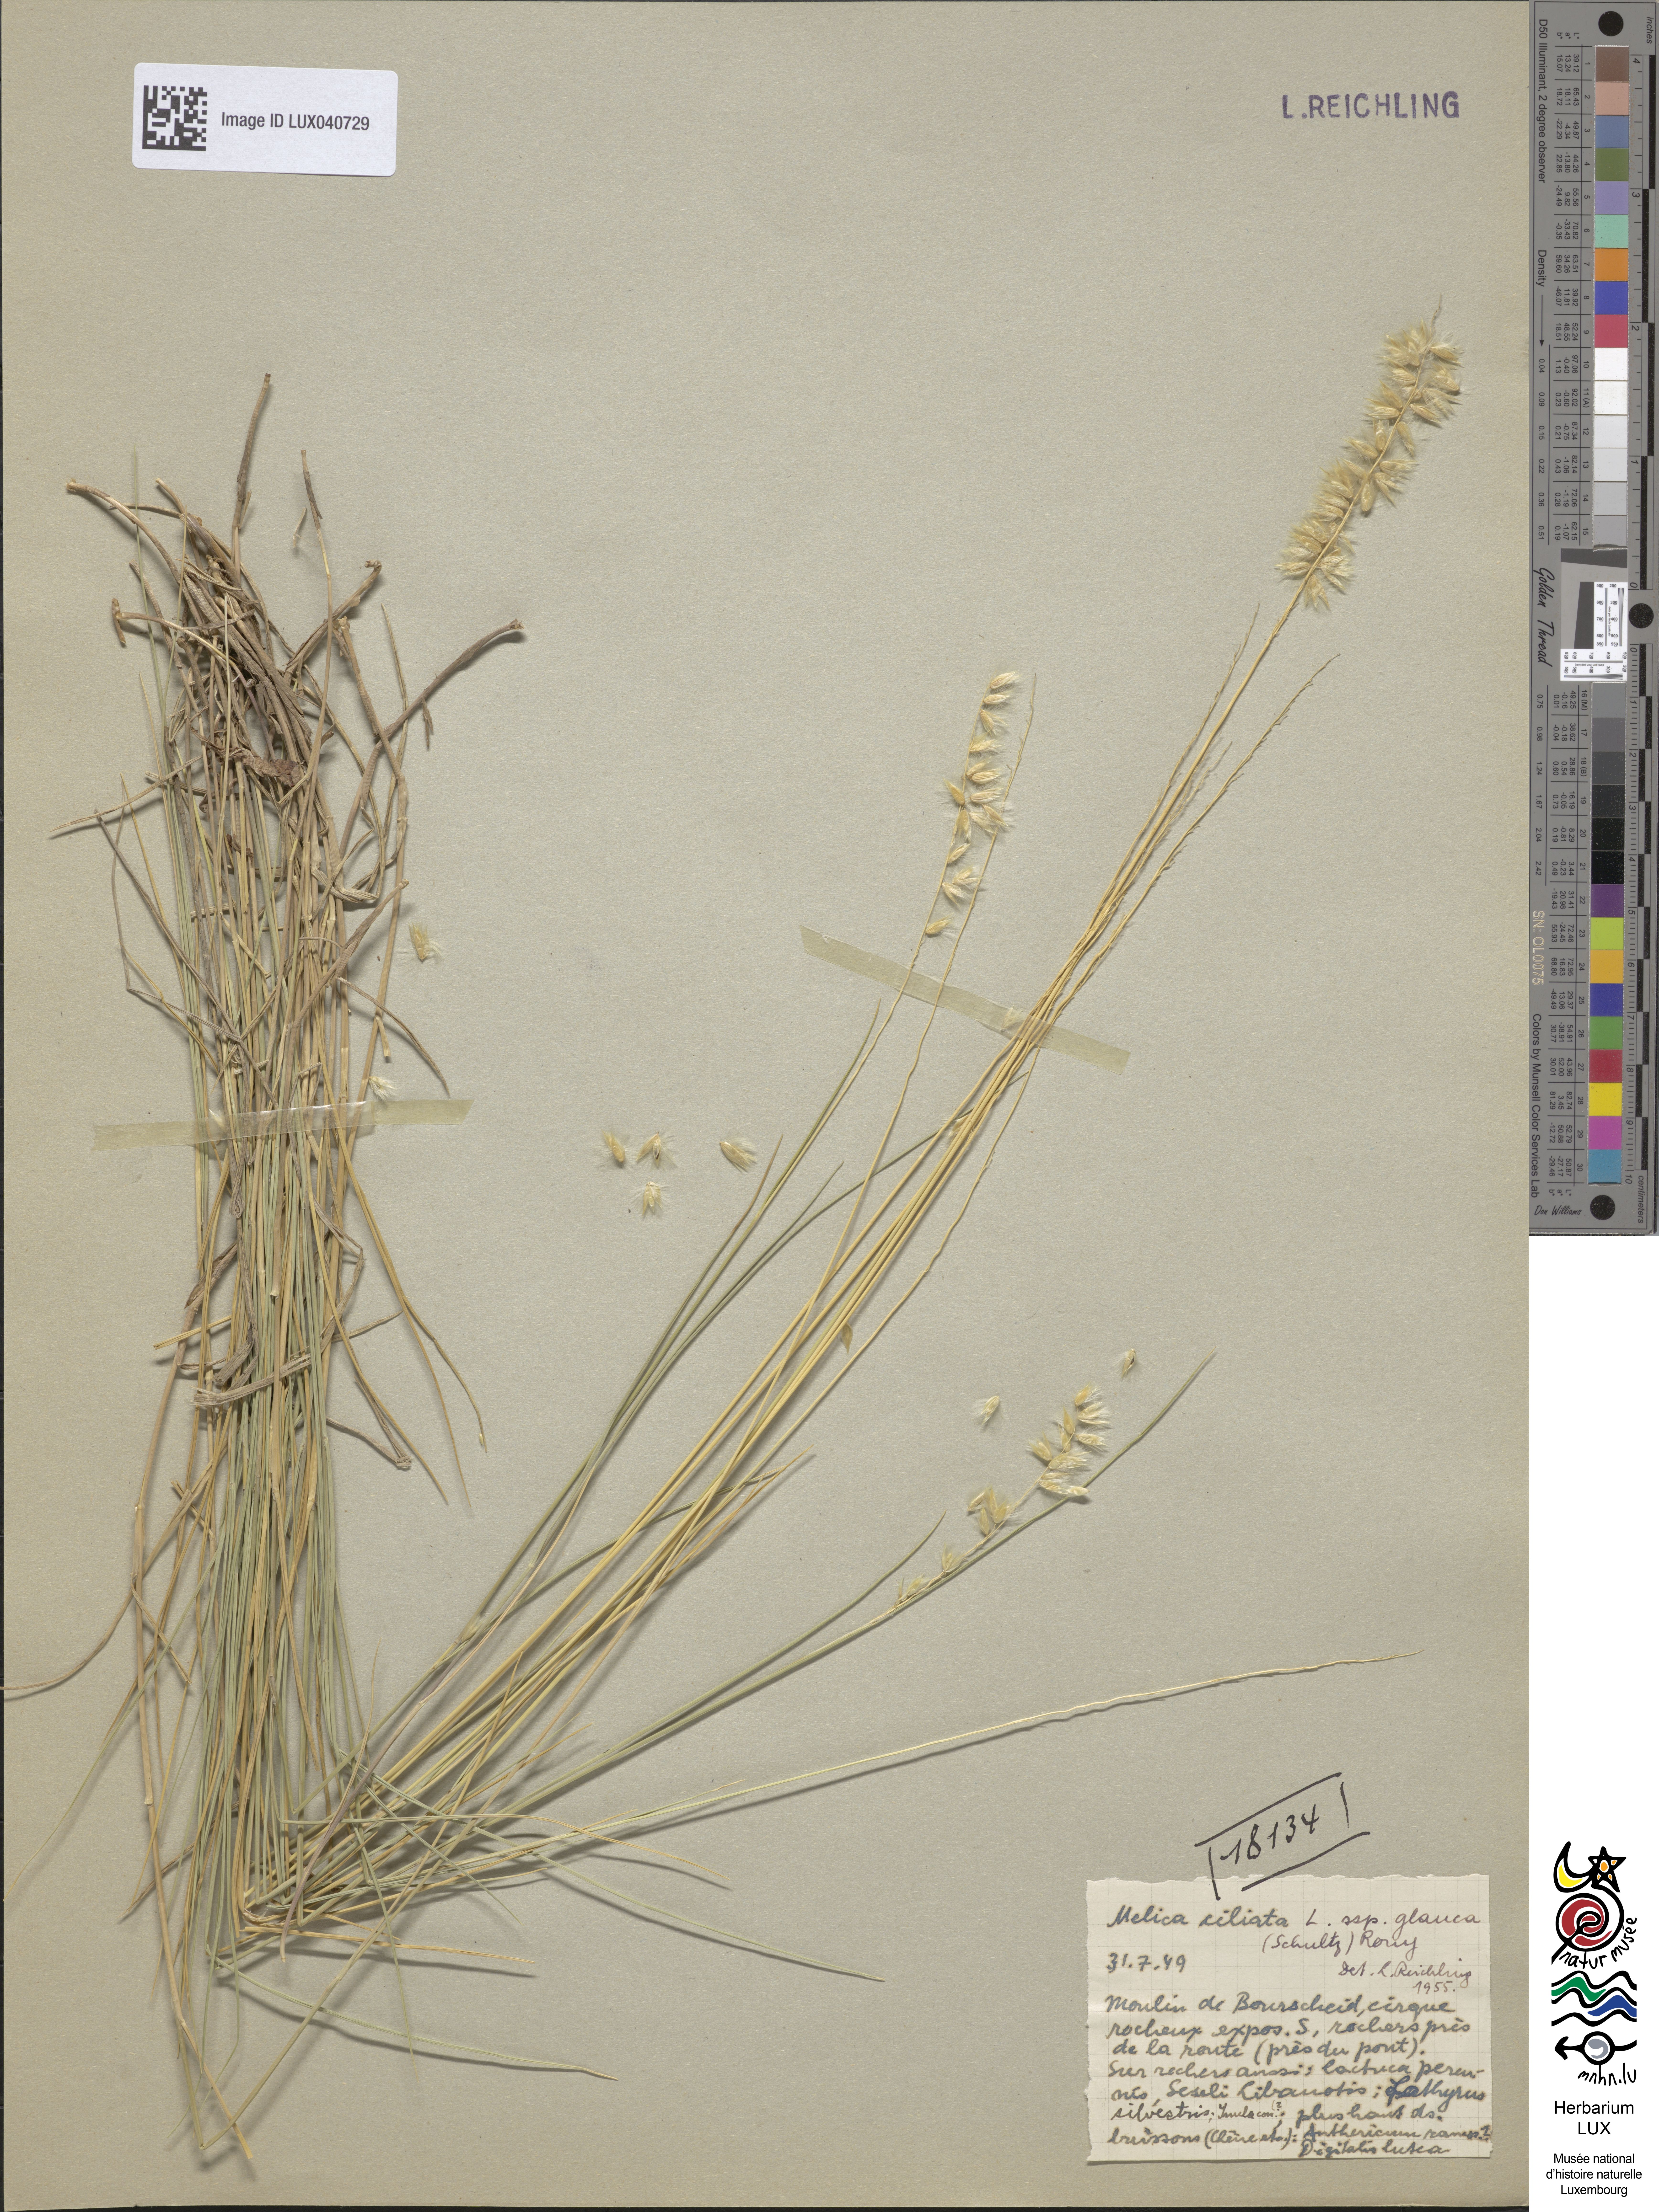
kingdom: Plantae
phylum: Tracheophyta
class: Liliopsida
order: Poales
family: Poaceae
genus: Melica
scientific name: Melica ciliata
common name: Hairy melicgrass
